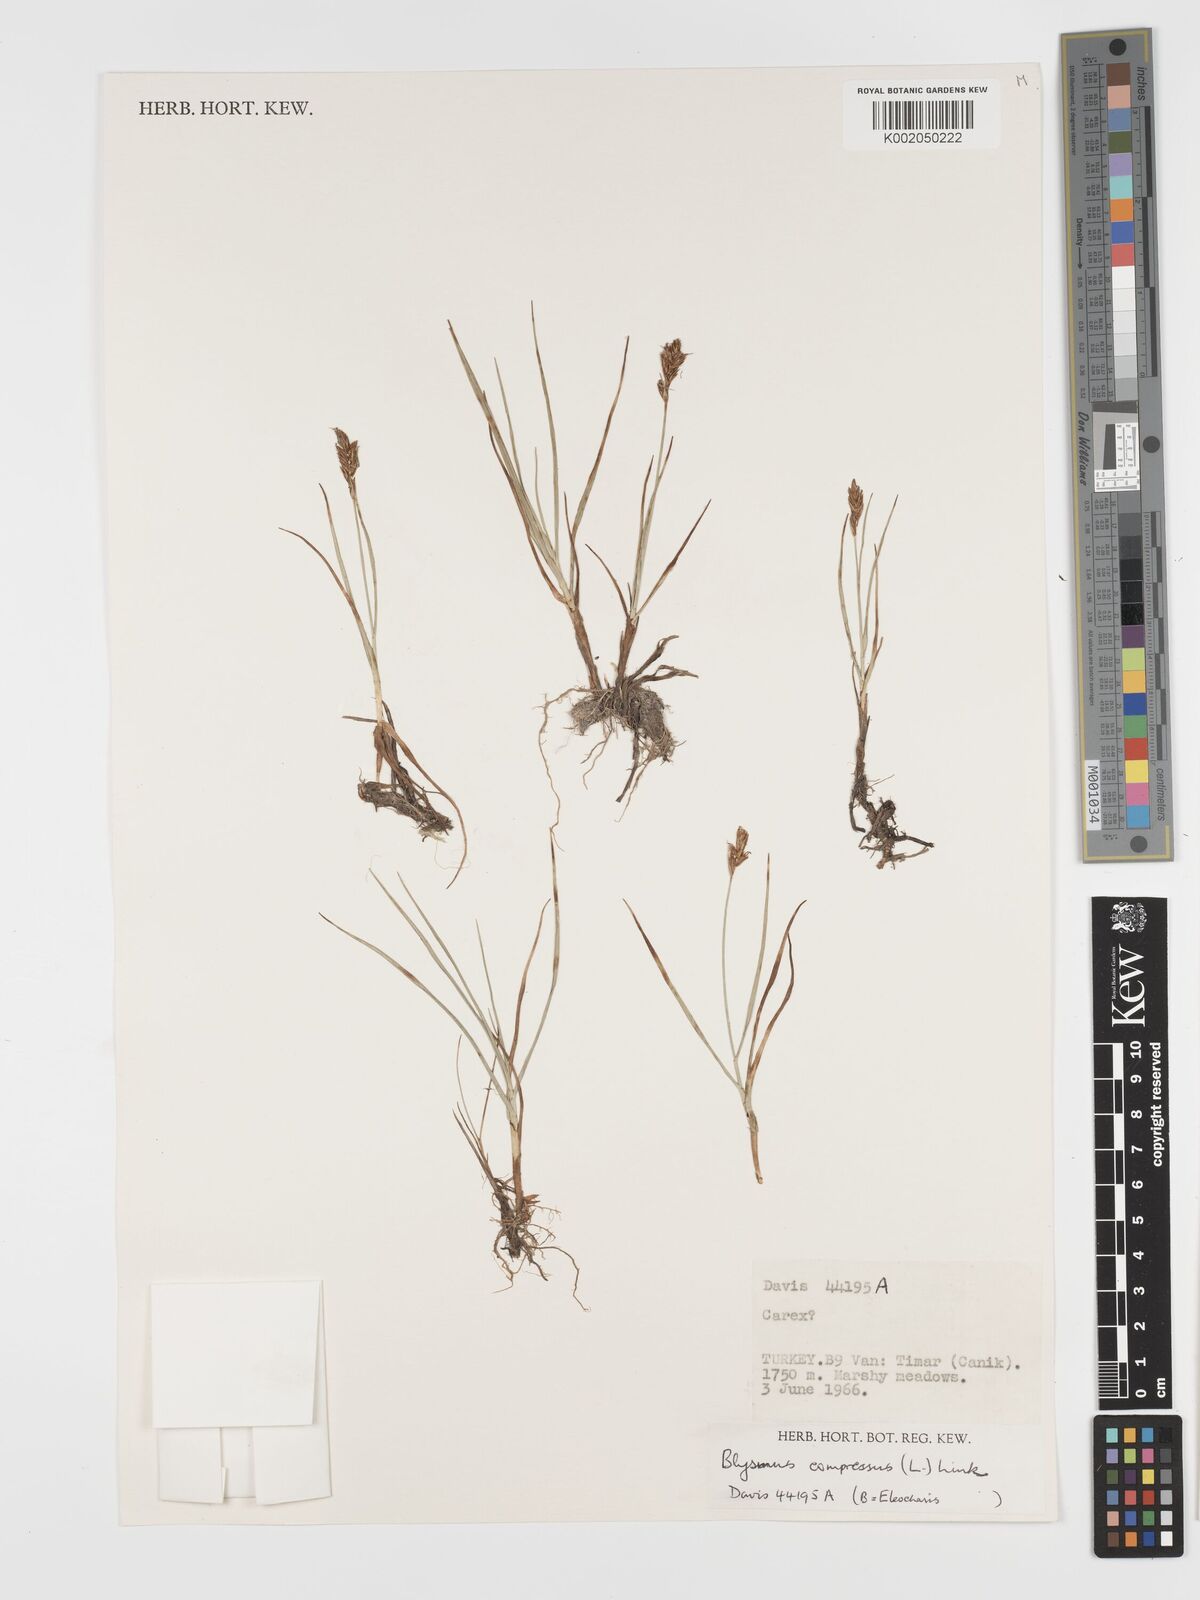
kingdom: Plantae
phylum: Tracheophyta
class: Liliopsida
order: Poales
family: Cyperaceae
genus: Blysmus
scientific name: Blysmus compressus
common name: Flat-sedge
